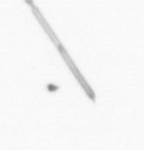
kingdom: Chromista
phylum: Ochrophyta
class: Bacillariophyceae
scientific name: Bacillariophyceae
